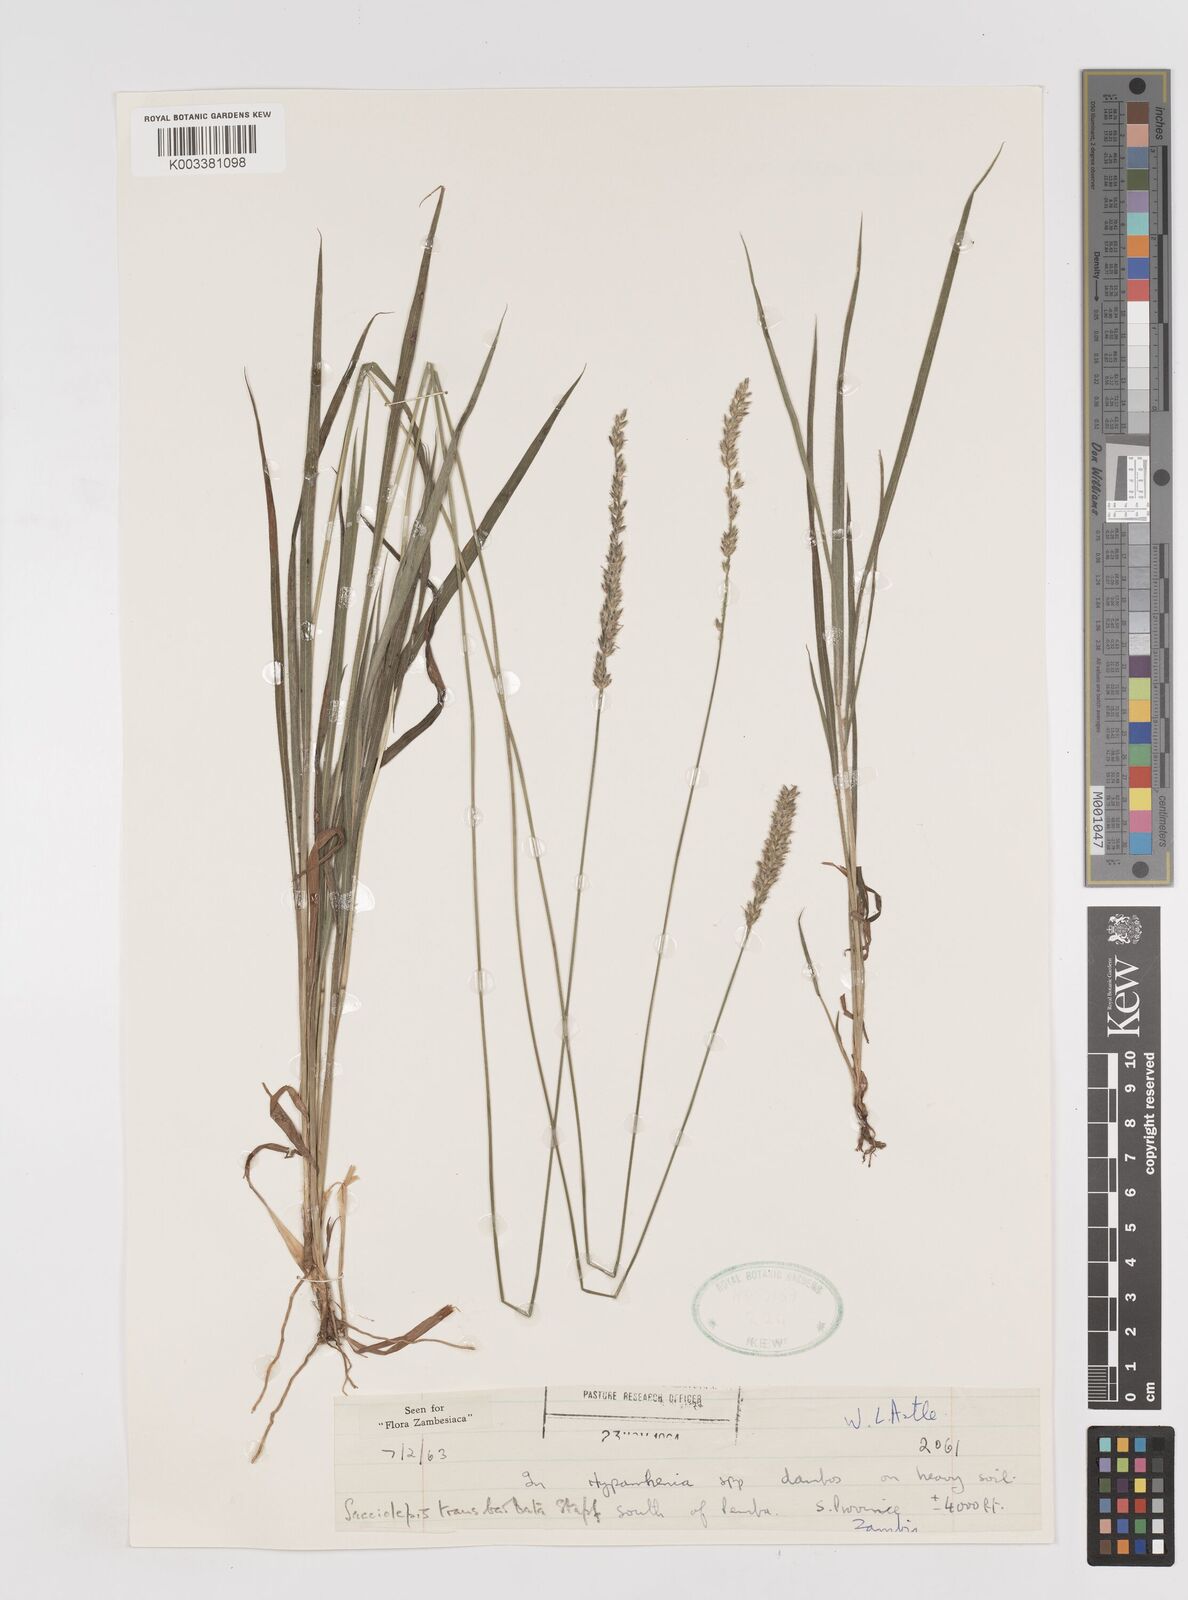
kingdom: Plantae
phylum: Tracheophyta
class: Liliopsida
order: Poales
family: Poaceae
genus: Sacciolepis
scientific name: Sacciolepis transbarbata
